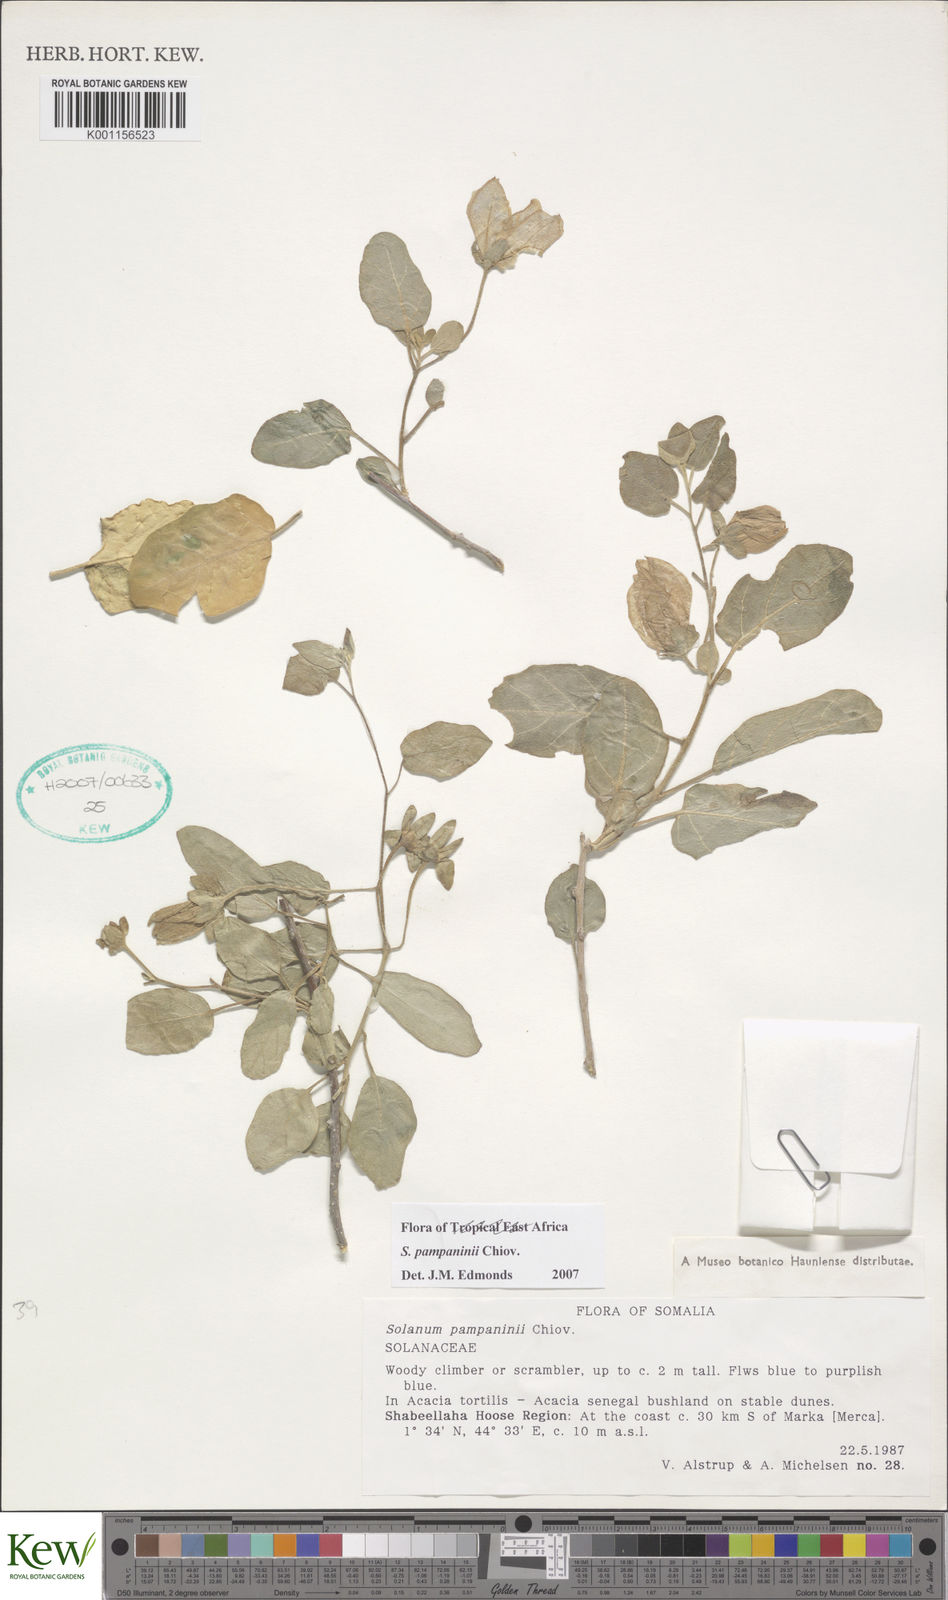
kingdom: Plantae
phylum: Tracheophyta
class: Magnoliopsida
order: Solanales
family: Solanaceae
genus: Solanum
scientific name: Solanum pampaninii
